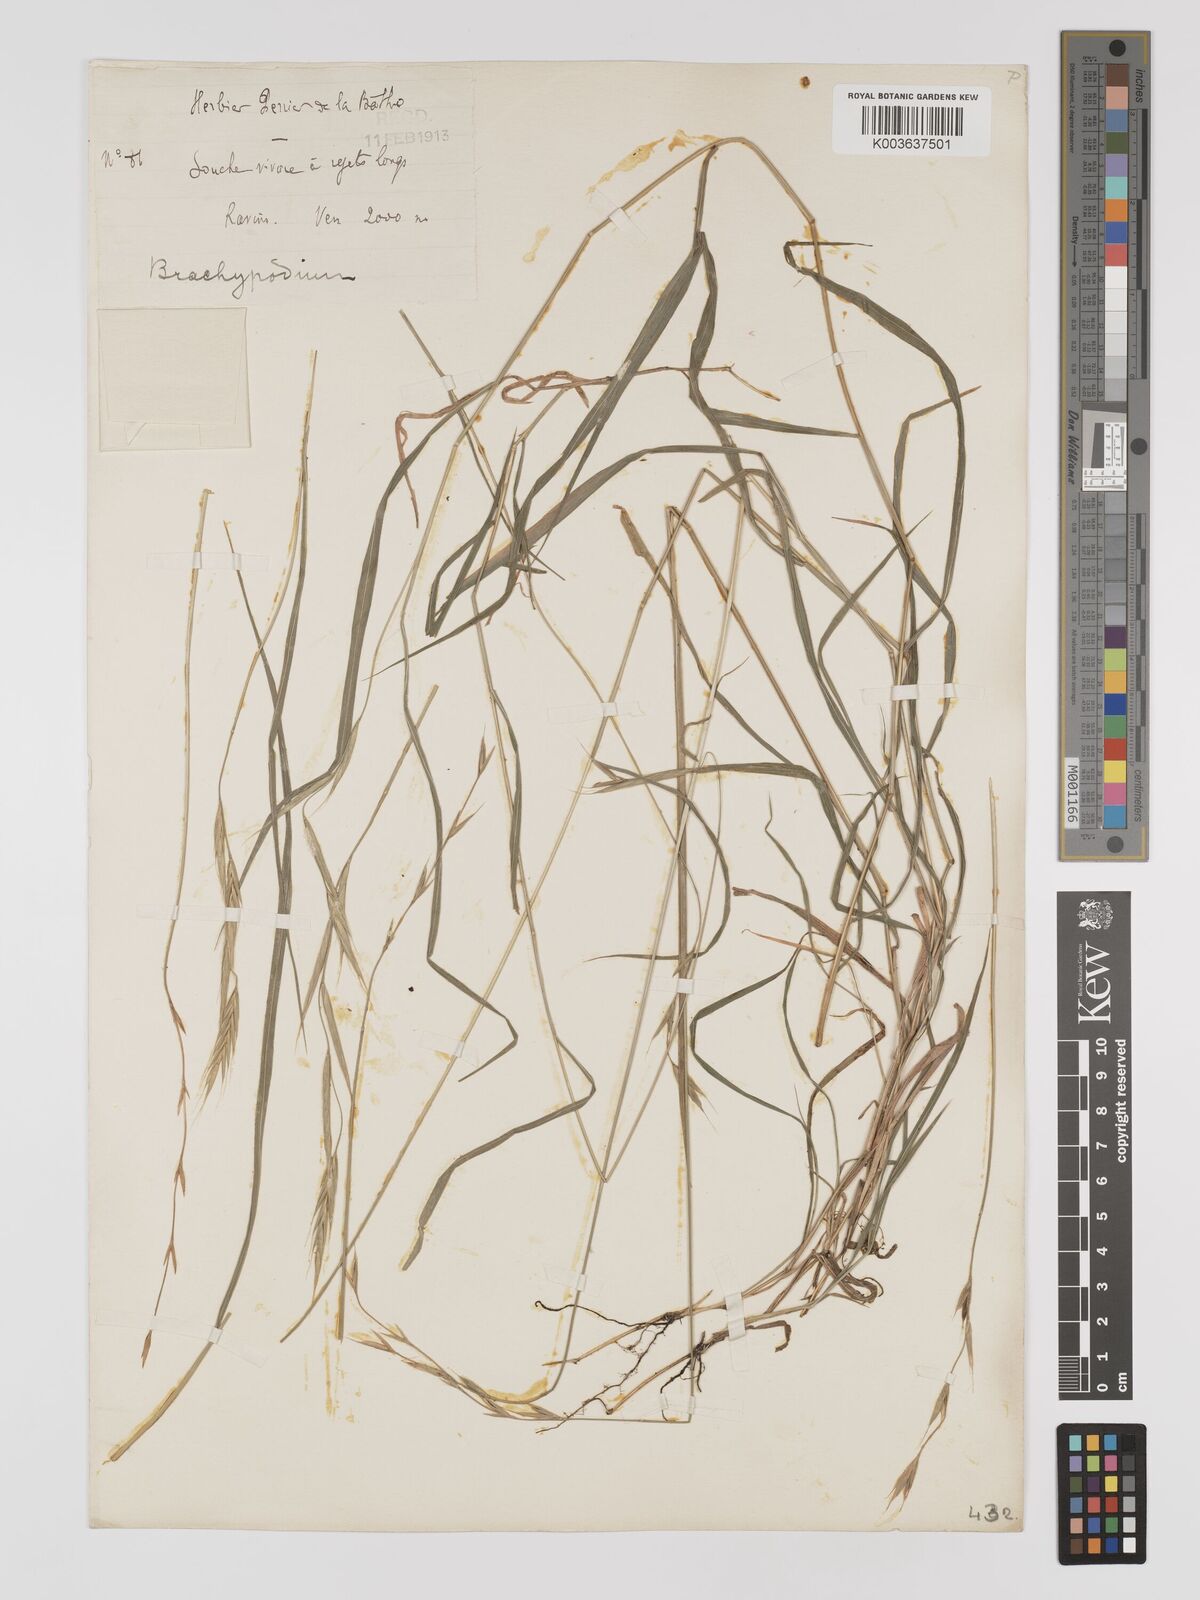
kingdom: Plantae
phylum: Tracheophyta
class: Liliopsida
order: Poales
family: Poaceae
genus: Brachypodium
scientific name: Brachypodium
